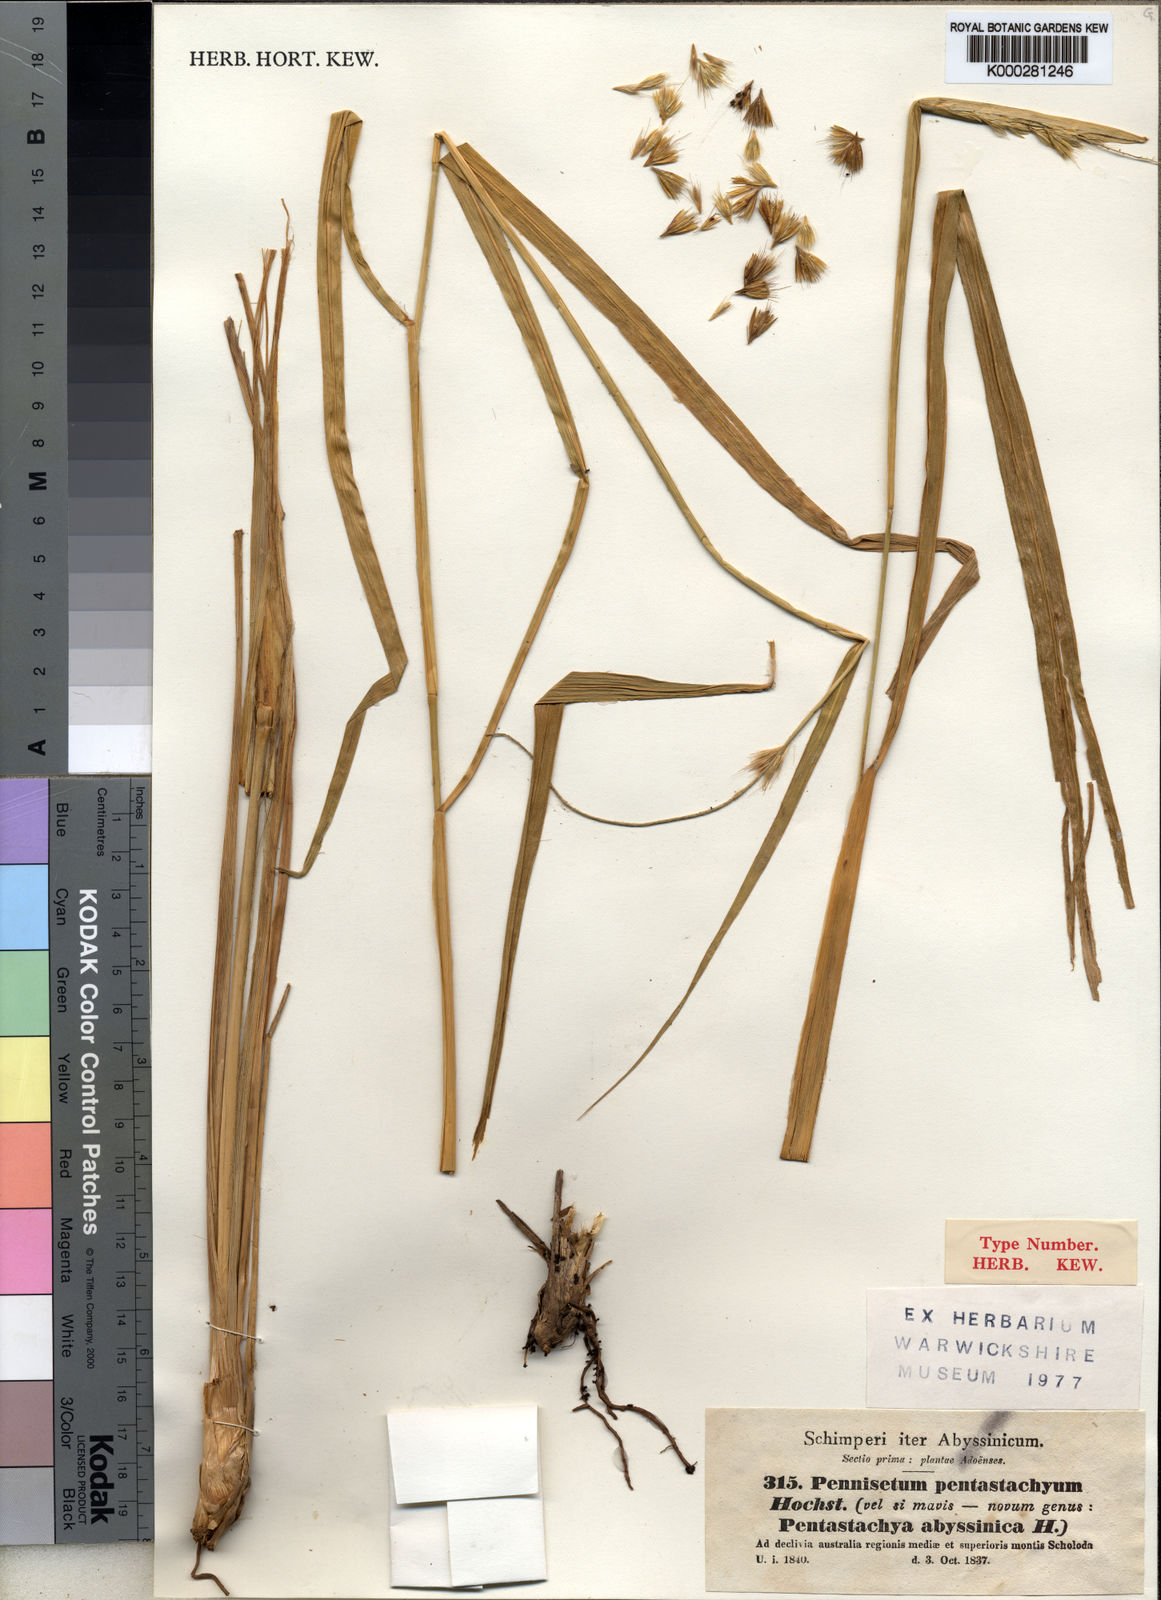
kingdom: Plantae
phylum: Tracheophyta
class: Liliopsida
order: Poales
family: Poaceae
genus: Cenchrus
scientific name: Cenchrus squamulatus
